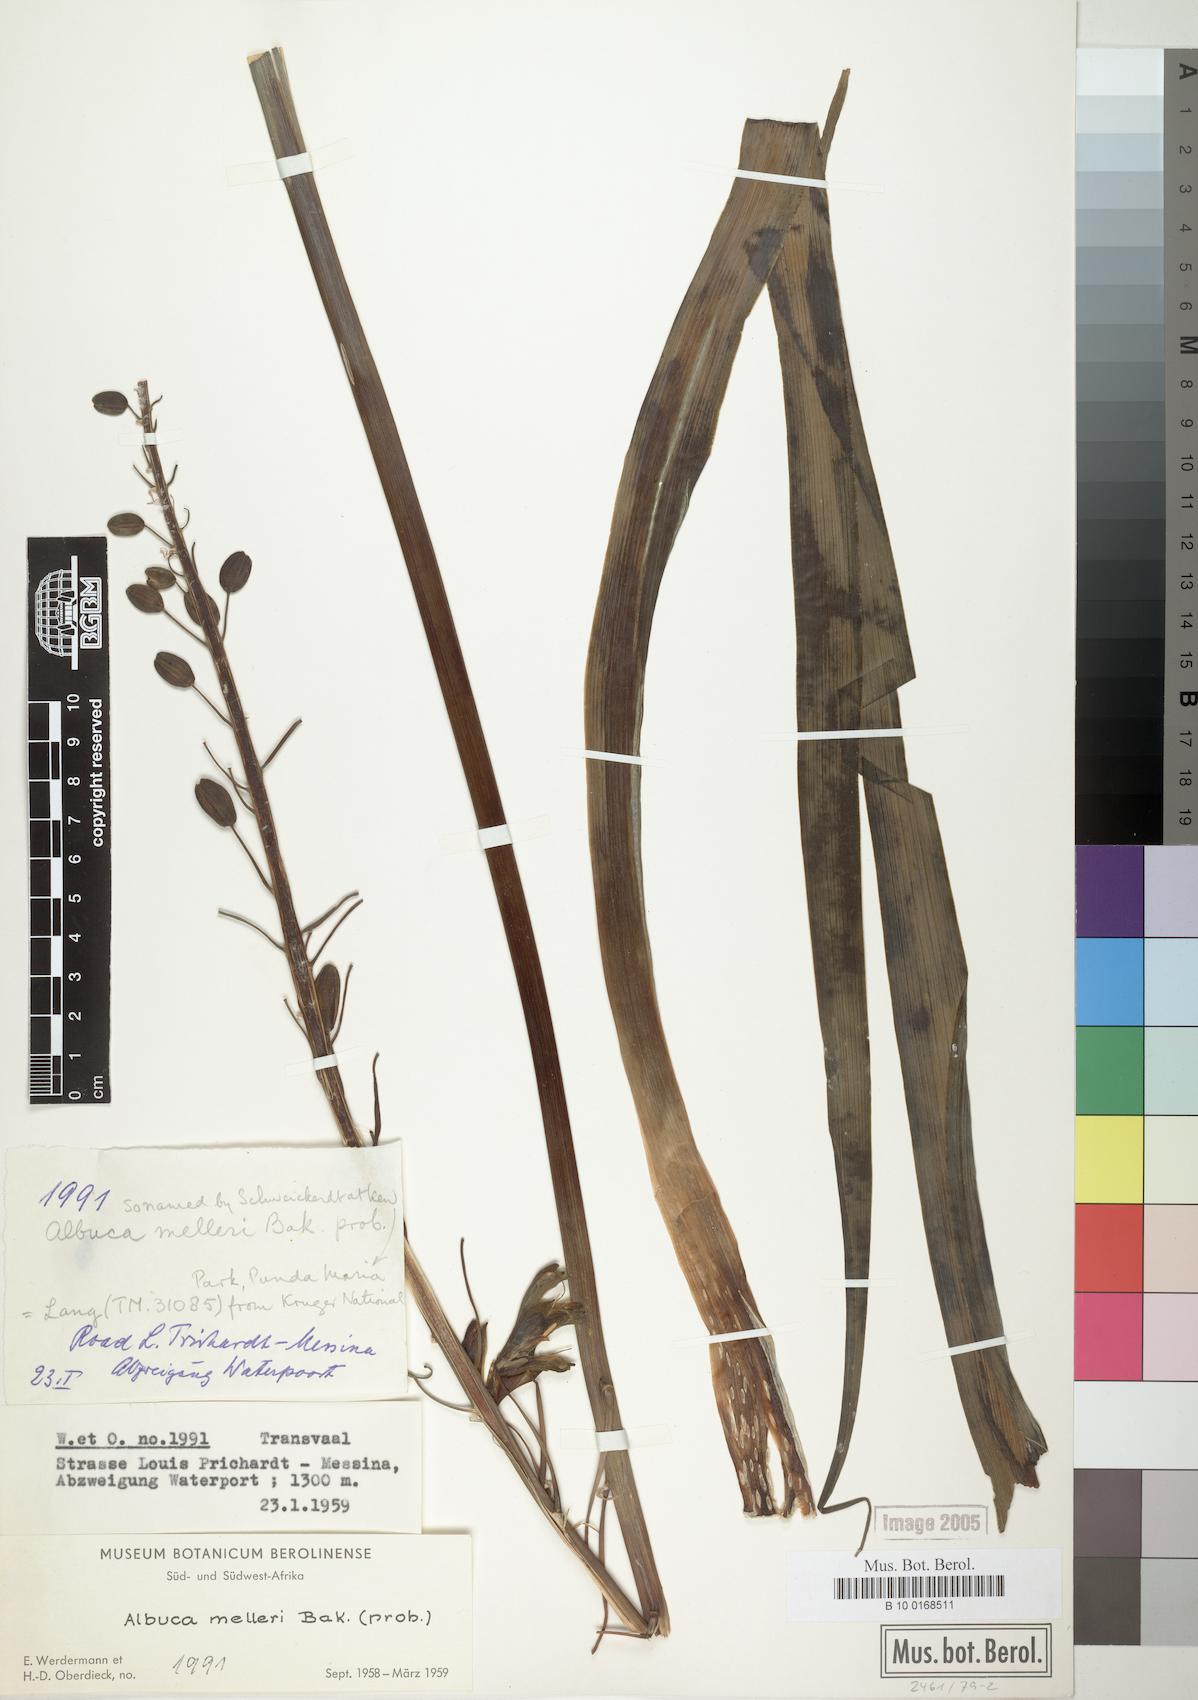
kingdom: Plantae
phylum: Tracheophyta
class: Liliopsida
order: Asparagales
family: Asparagaceae
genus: Albuca
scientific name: Albuca abyssinica
